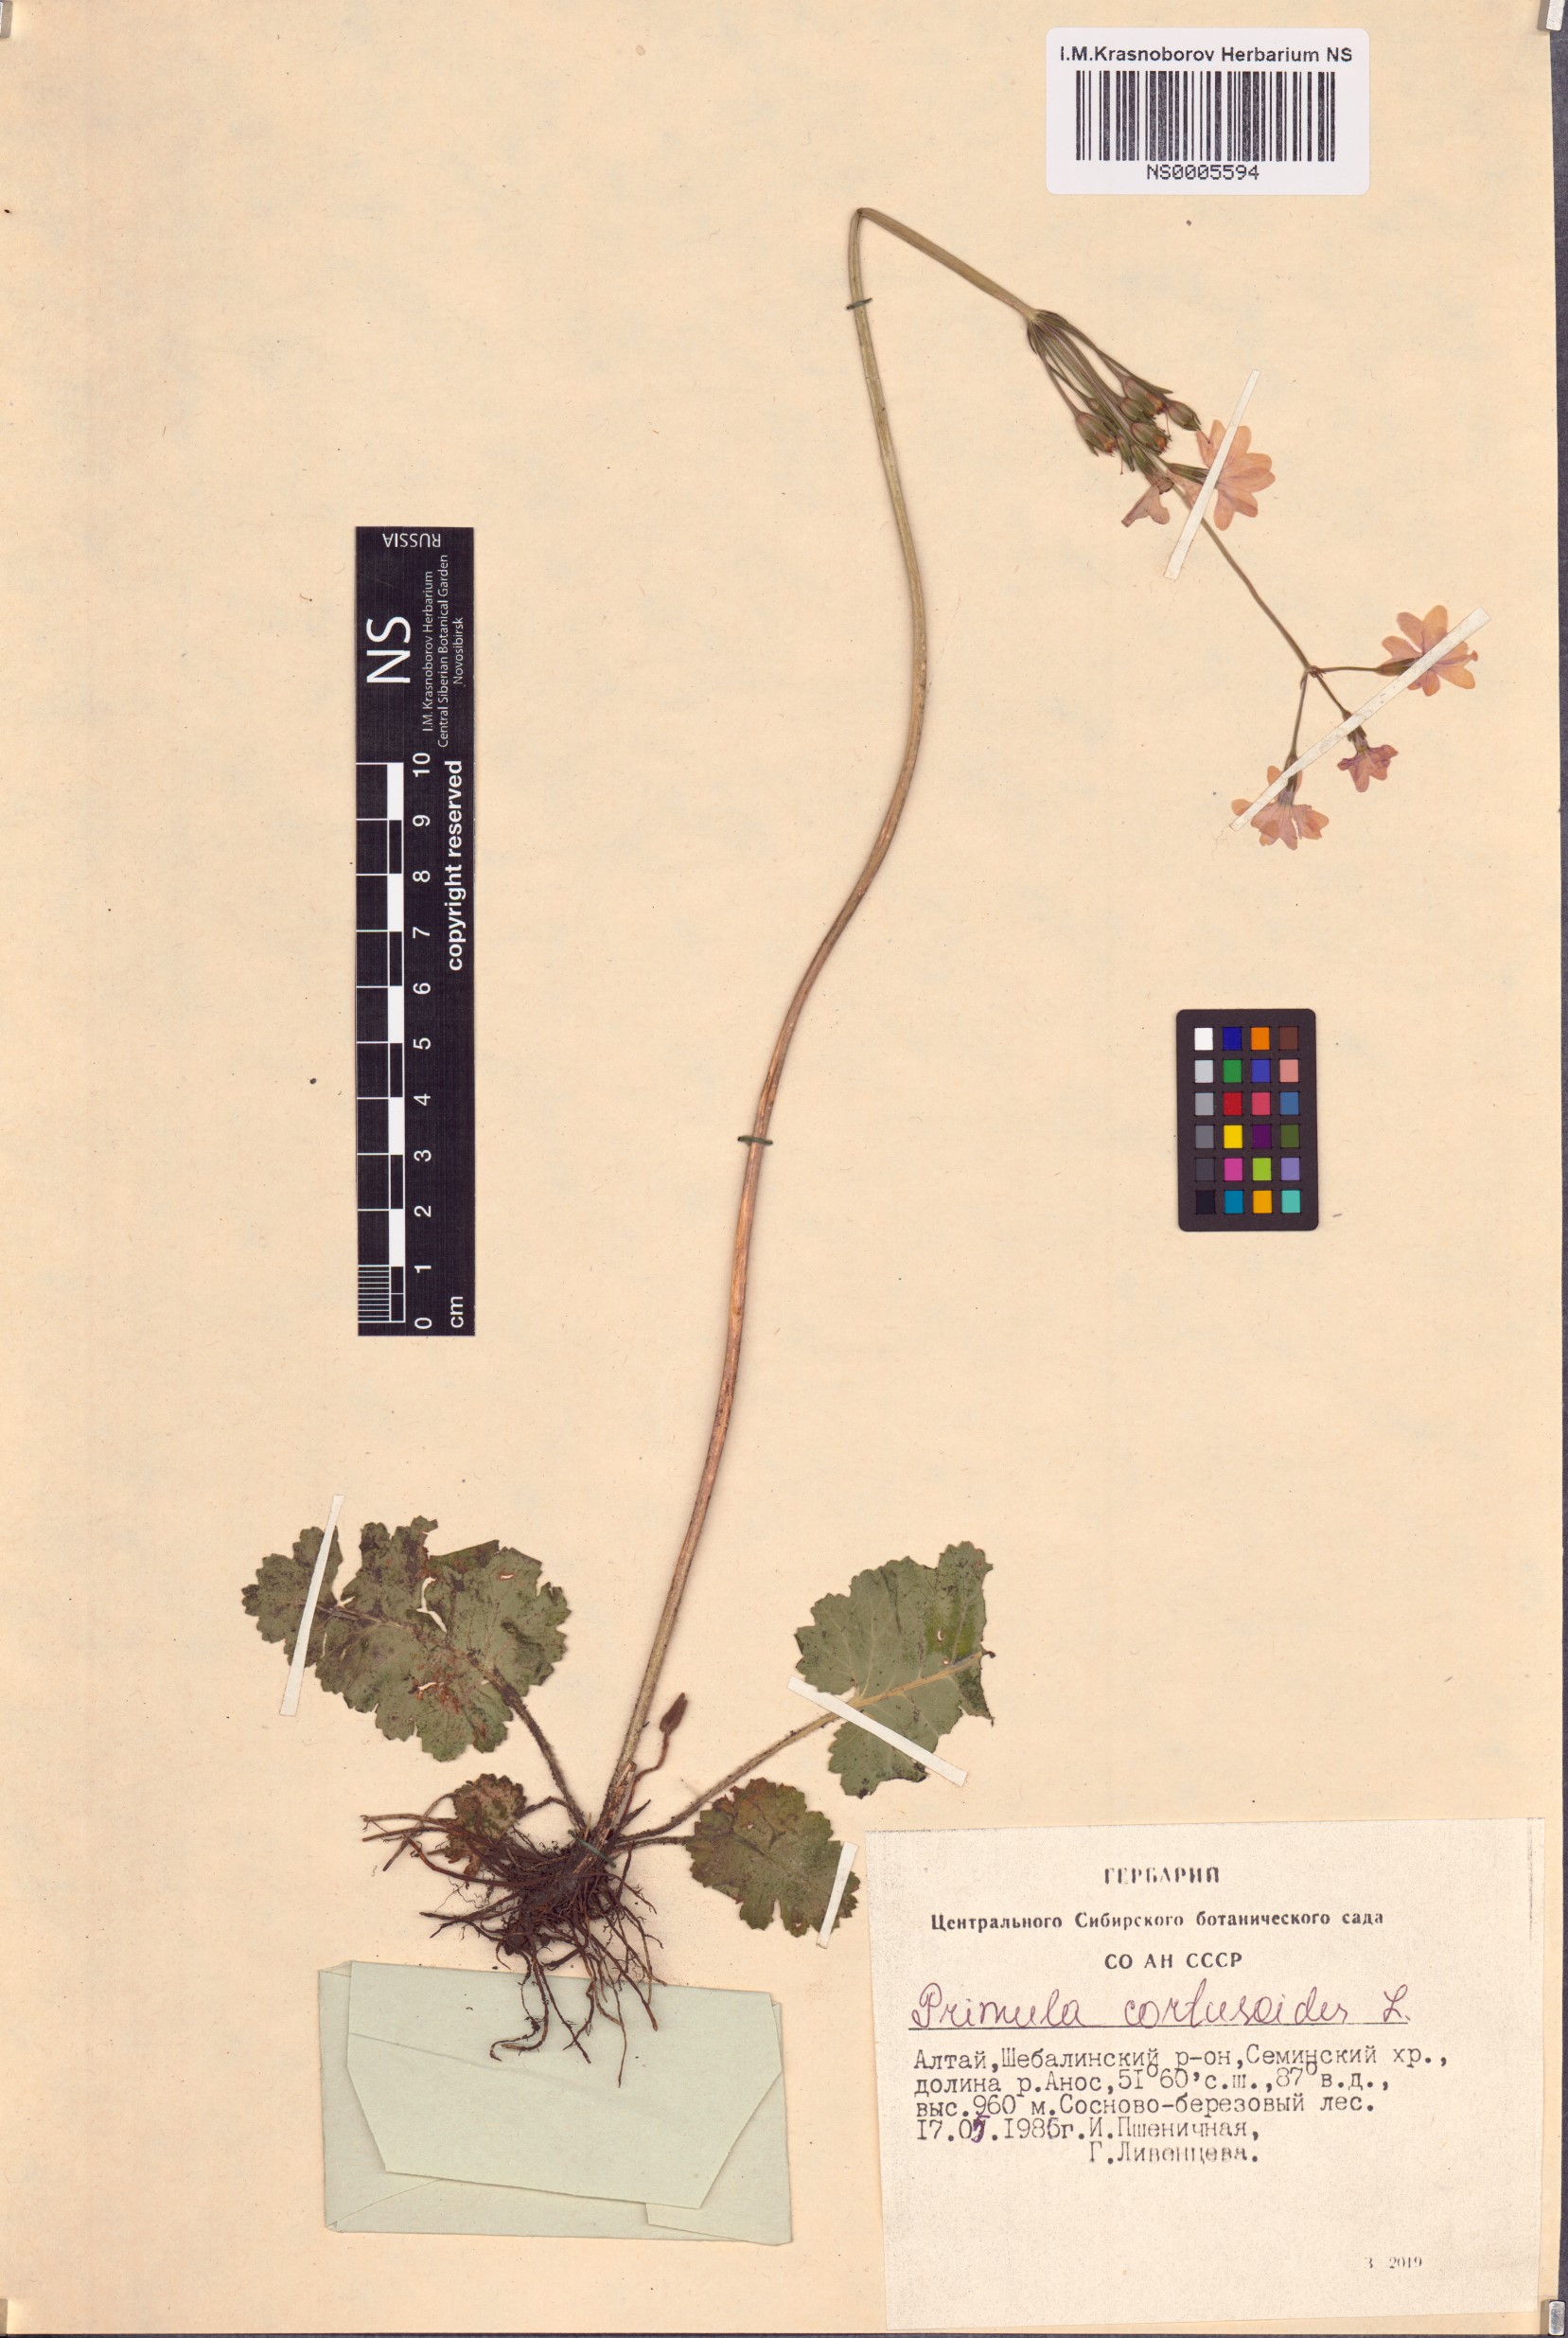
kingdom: Plantae
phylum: Tracheophyta
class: Magnoliopsida
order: Ericales
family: Primulaceae
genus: Primula
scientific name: Primula cortusoides
